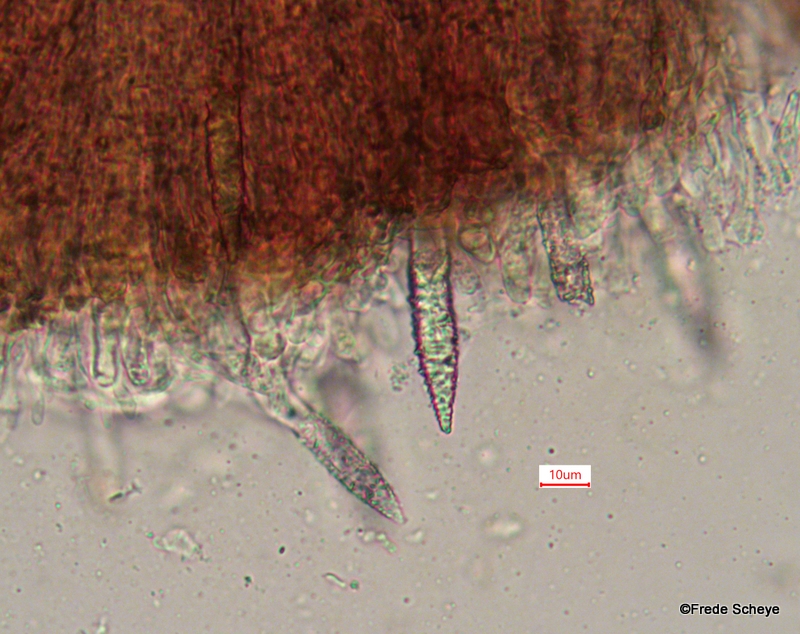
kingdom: Fungi
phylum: Basidiomycota
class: Agaricomycetes
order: Russulales
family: Peniophoraceae
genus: Peniophora
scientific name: Peniophora quercina
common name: ege-voksskind
